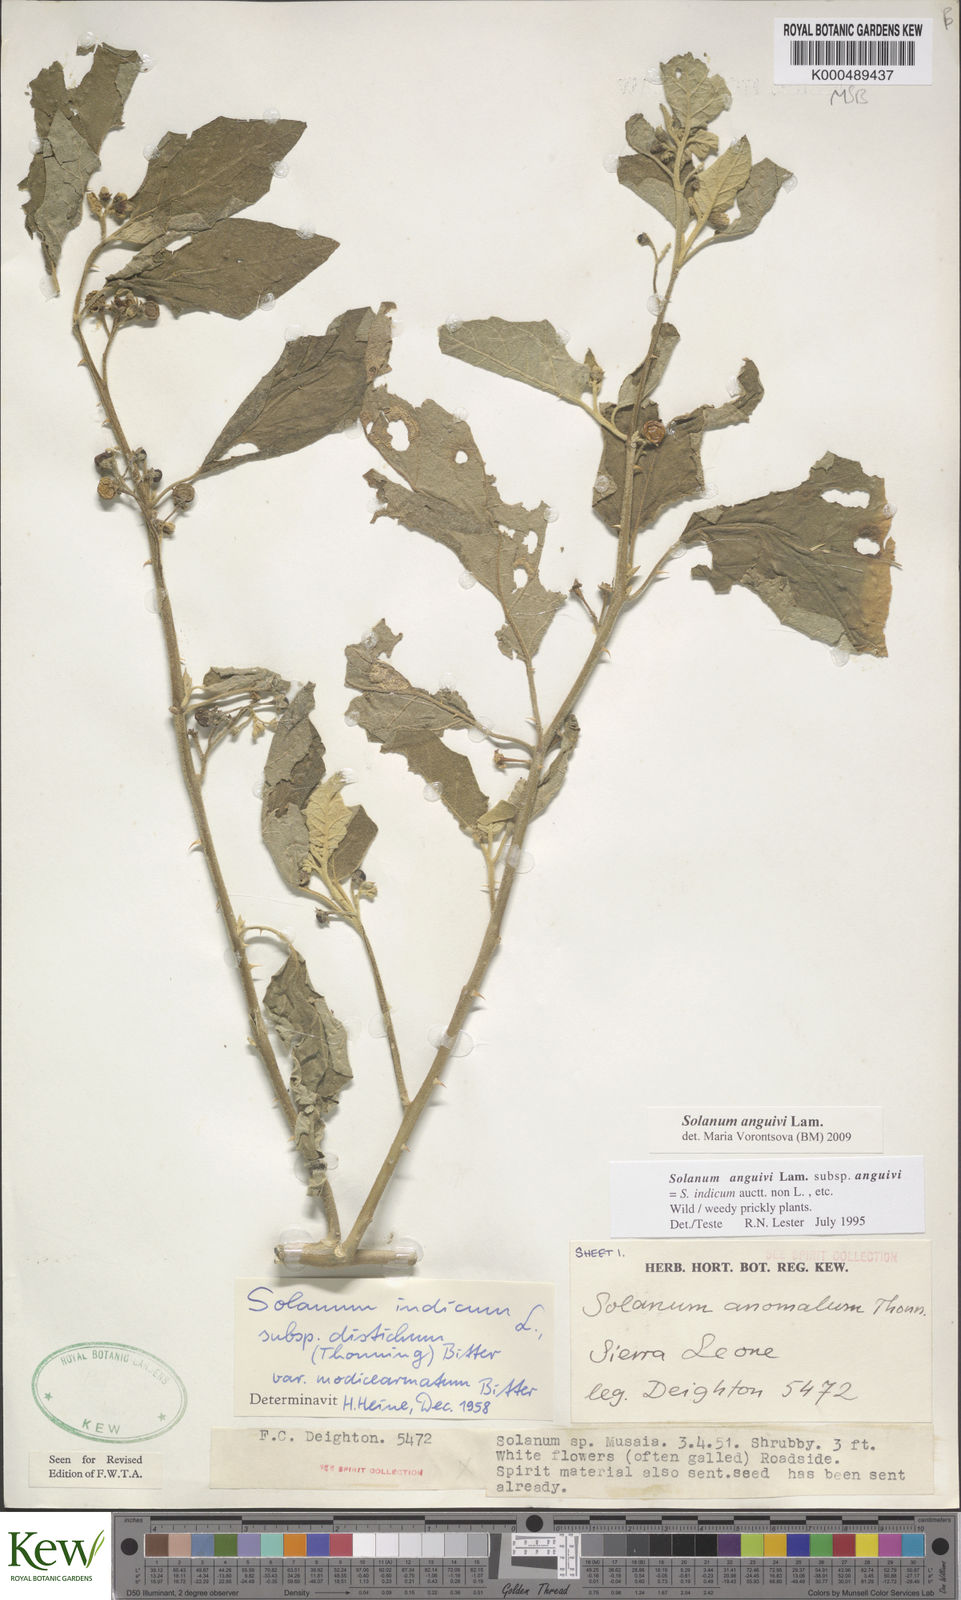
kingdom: Plantae
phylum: Tracheophyta
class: Magnoliopsida
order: Solanales
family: Solanaceae
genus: Solanum
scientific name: Solanum anguivi
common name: Forest bitterberry
